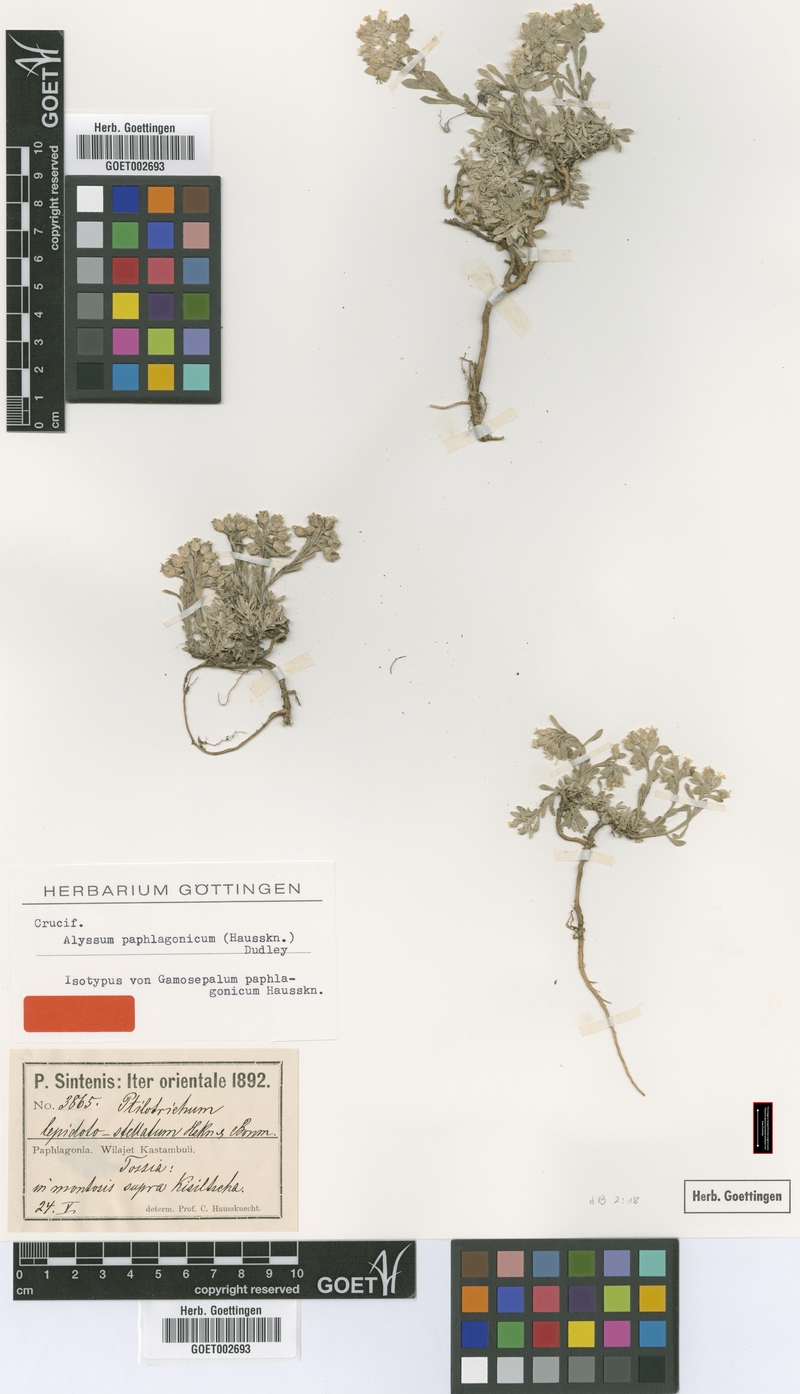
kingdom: Plantae
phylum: Tracheophyta
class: Magnoliopsida
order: Brassicales
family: Brassicaceae
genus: Alyssum
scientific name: Alyssum paphlagonicum
